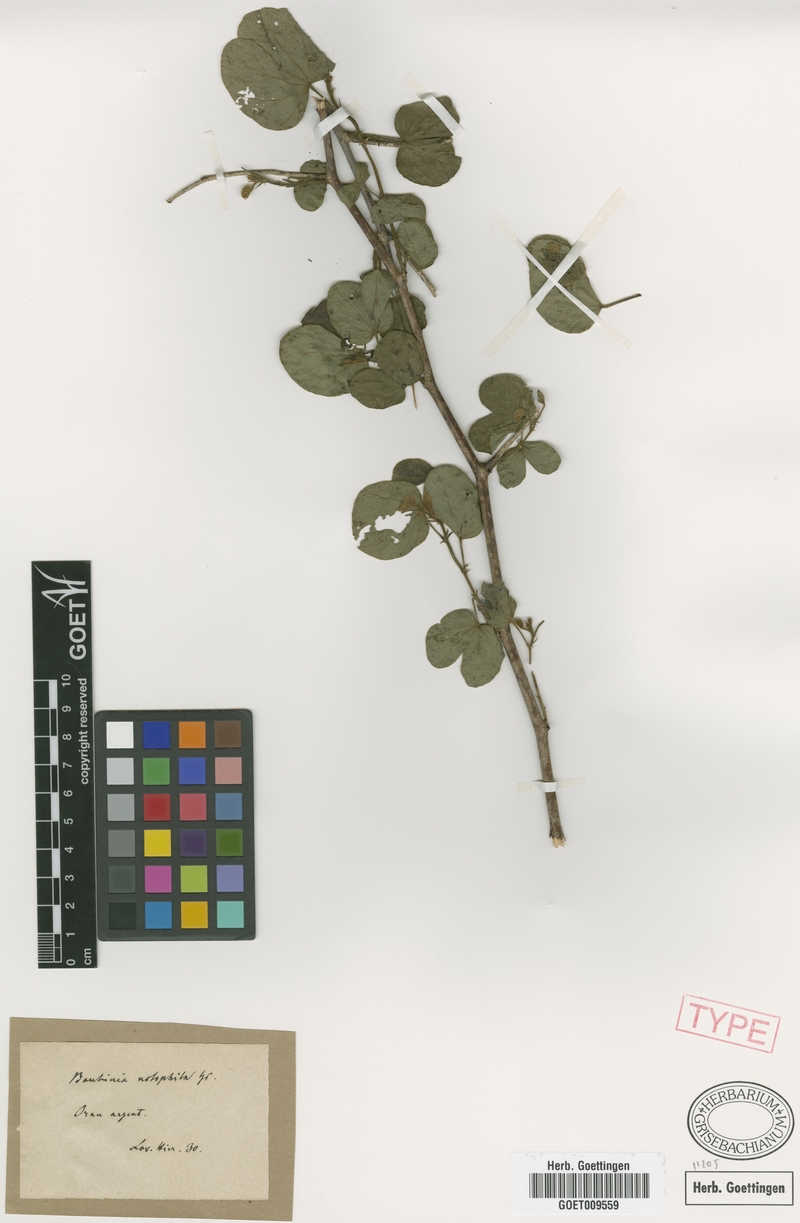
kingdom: Plantae
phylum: Tracheophyta
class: Magnoliopsida
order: Fabales
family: Fabaceae
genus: Bauhinia
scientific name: Bauhinia mollis
